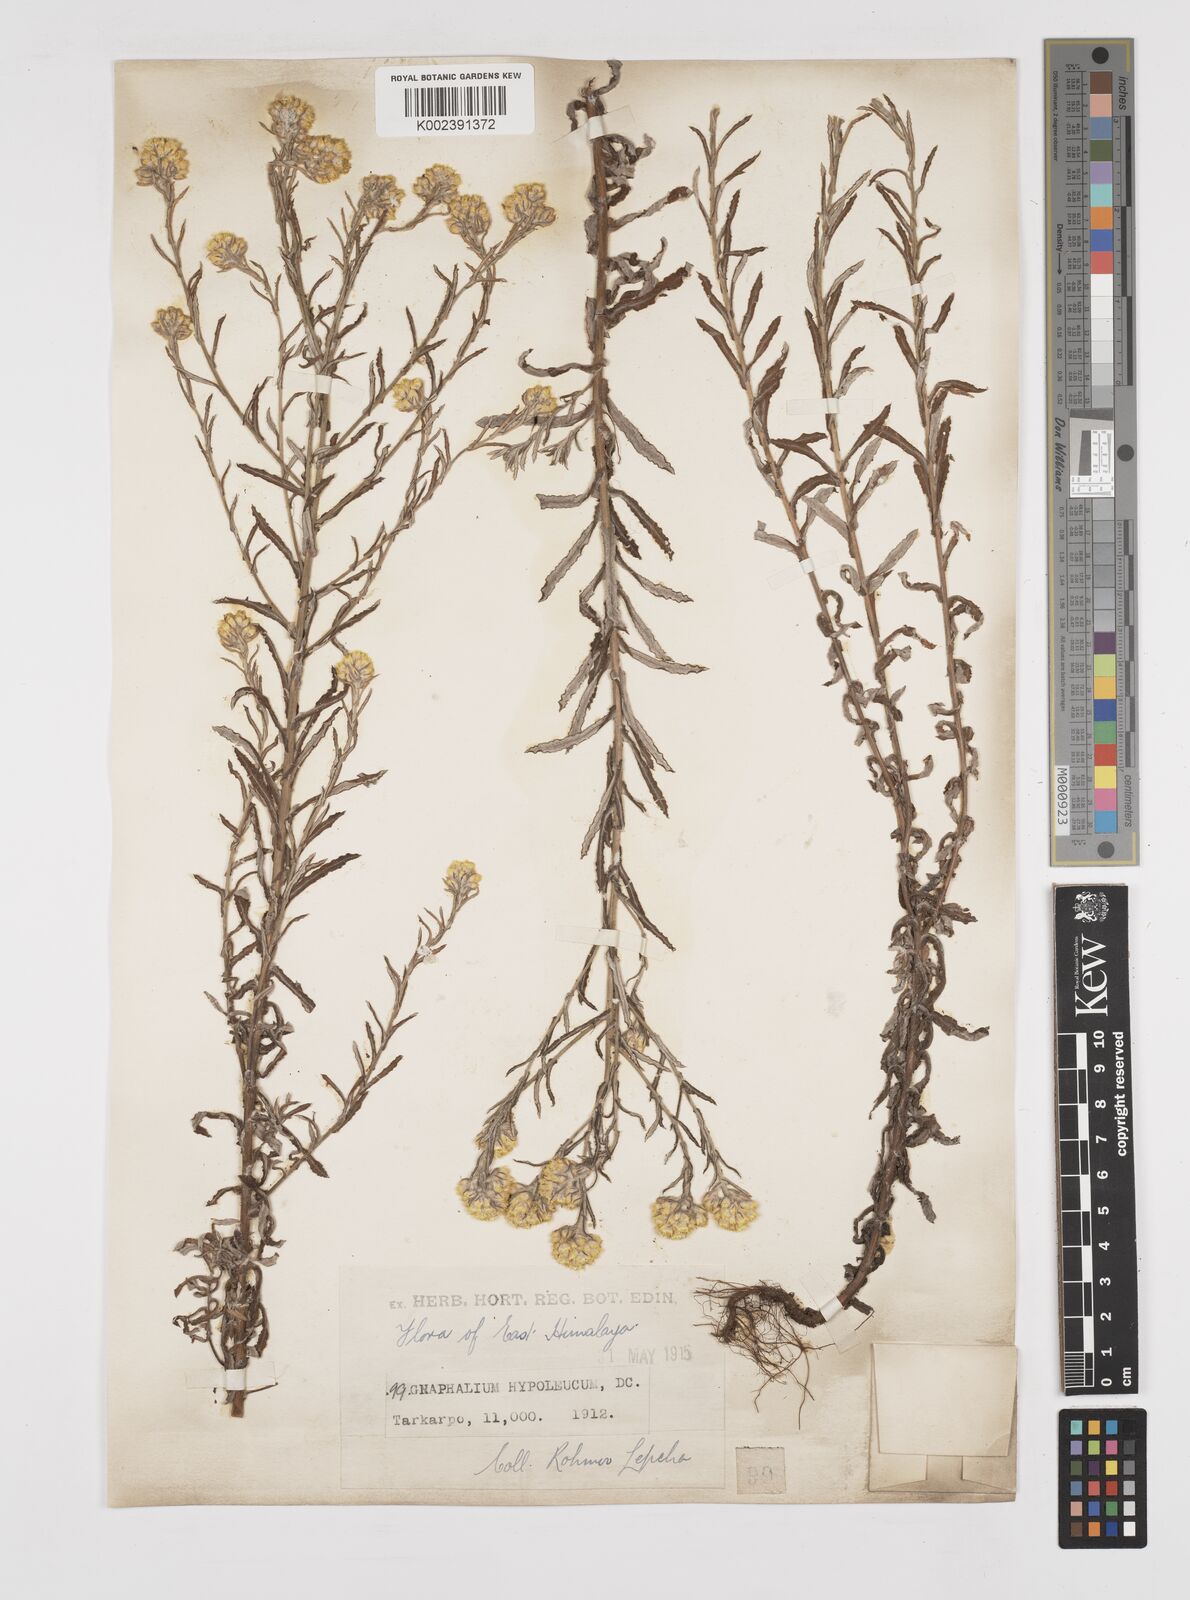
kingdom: Plantae
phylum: Tracheophyta
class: Magnoliopsida
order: Asterales
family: Asteraceae
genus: Pseudognaphalium
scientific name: Pseudognaphalium hypoleucum
